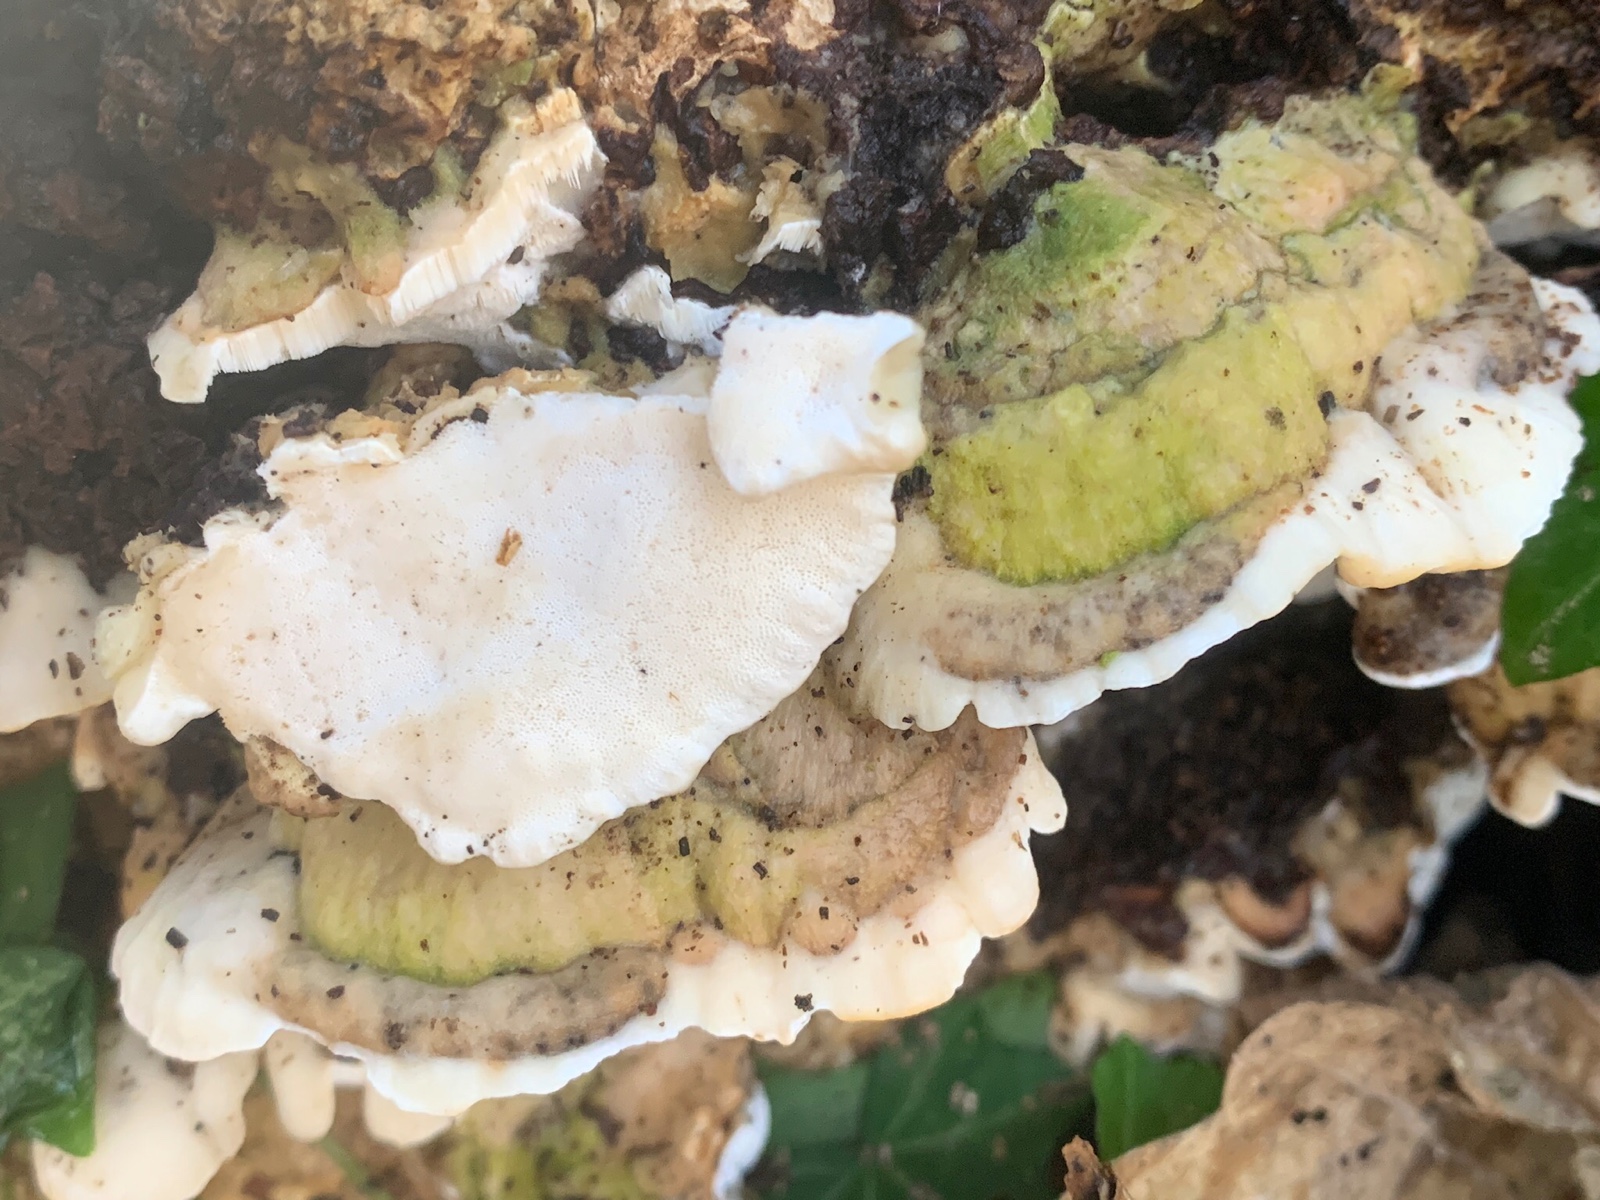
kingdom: Fungi
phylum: Basidiomycota
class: Agaricomycetes
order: Hymenochaetales
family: Oxyporaceae
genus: Oxyporus
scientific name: Oxyporus populinus
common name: sammenvokset trylleporesvamp
